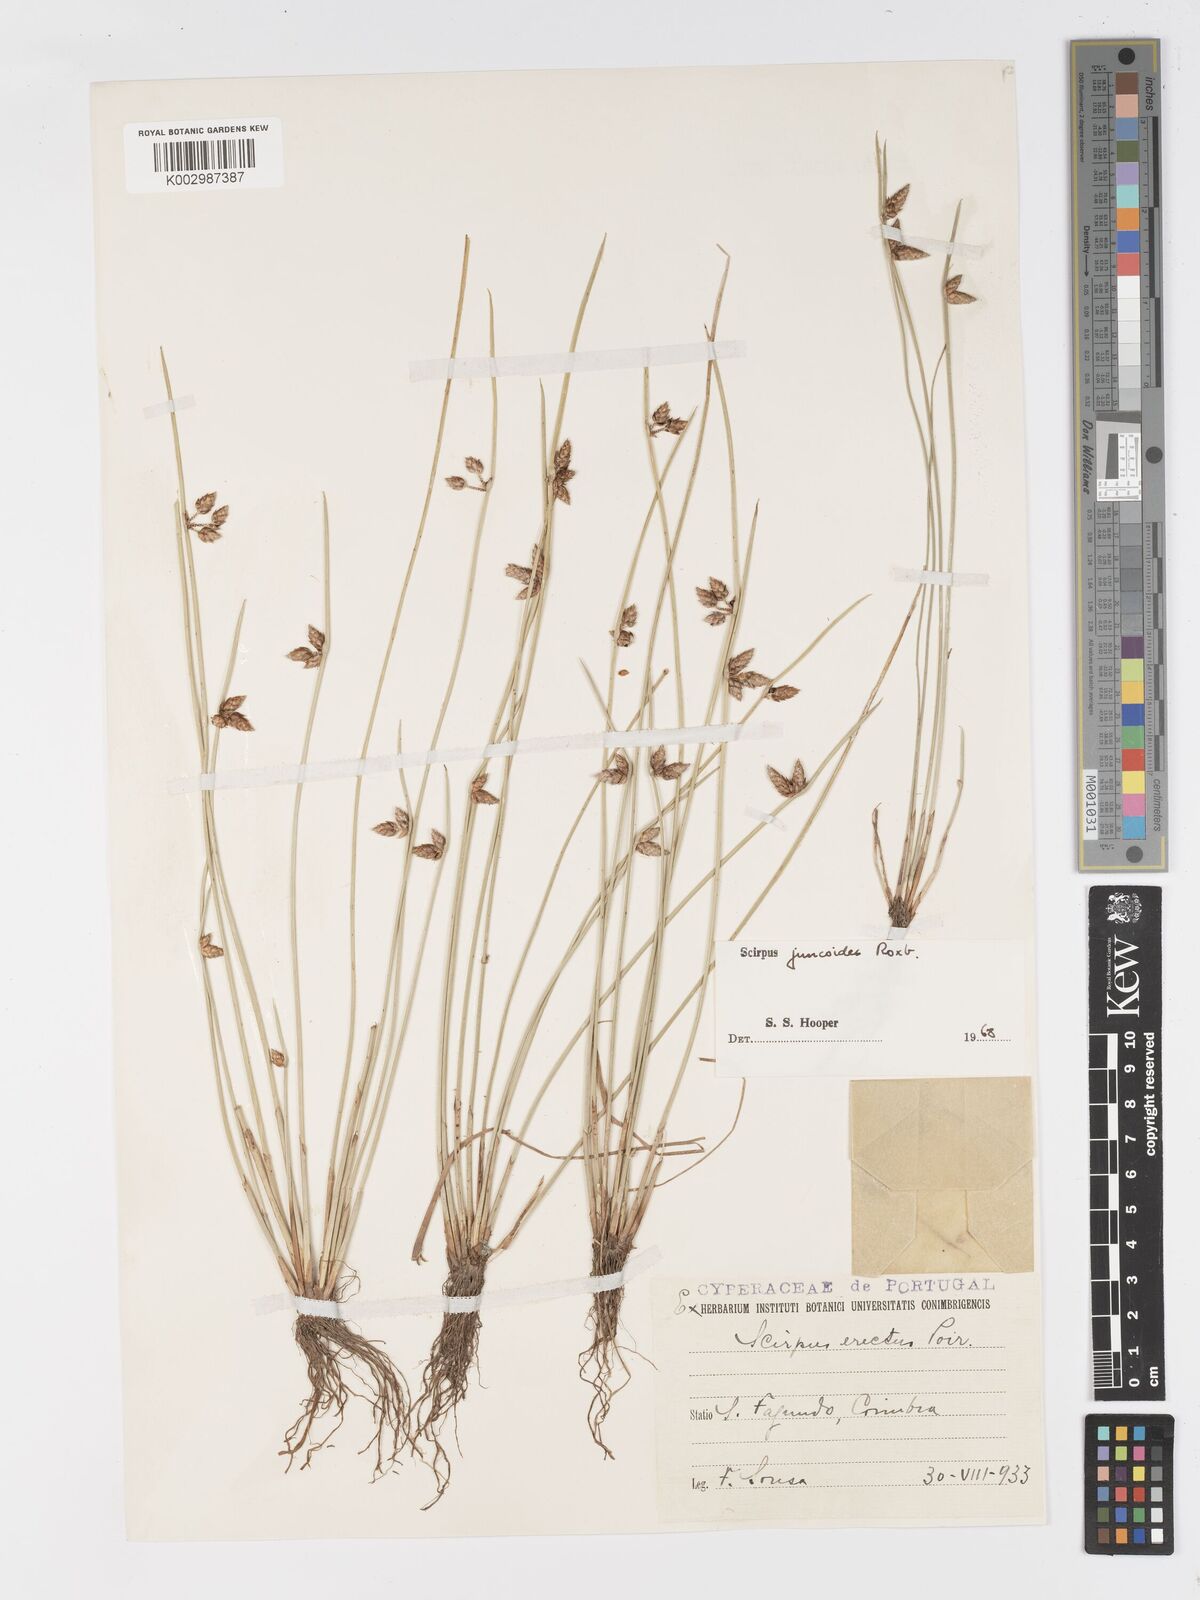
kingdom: Plantae
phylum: Tracheophyta
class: Liliopsida
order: Poales
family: Cyperaceae
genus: Schoenoplectiella
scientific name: Schoenoplectiella juncoides
